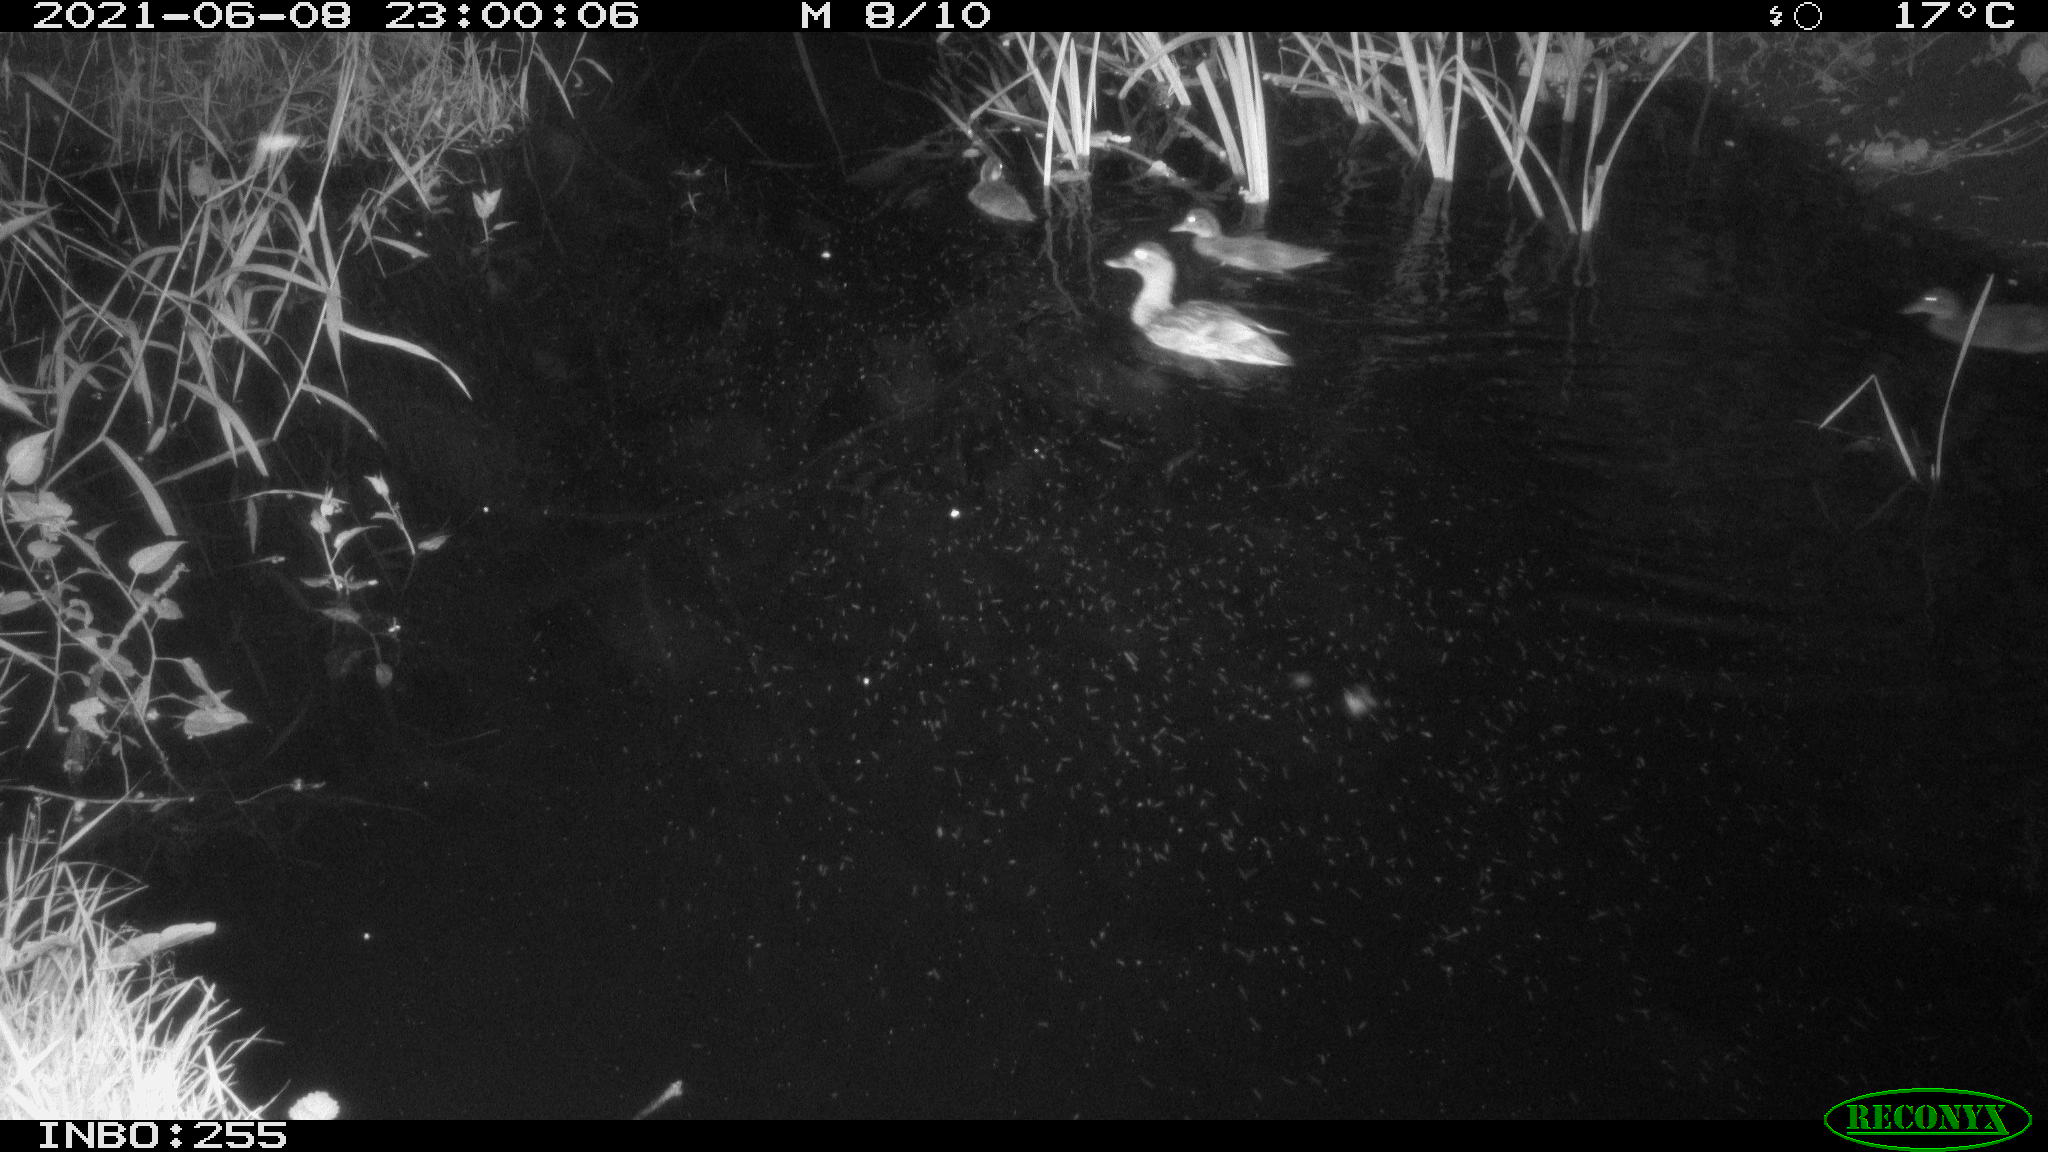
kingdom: Animalia
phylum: Chordata
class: Aves
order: Anseriformes
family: Anatidae
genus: Anas
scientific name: Anas
